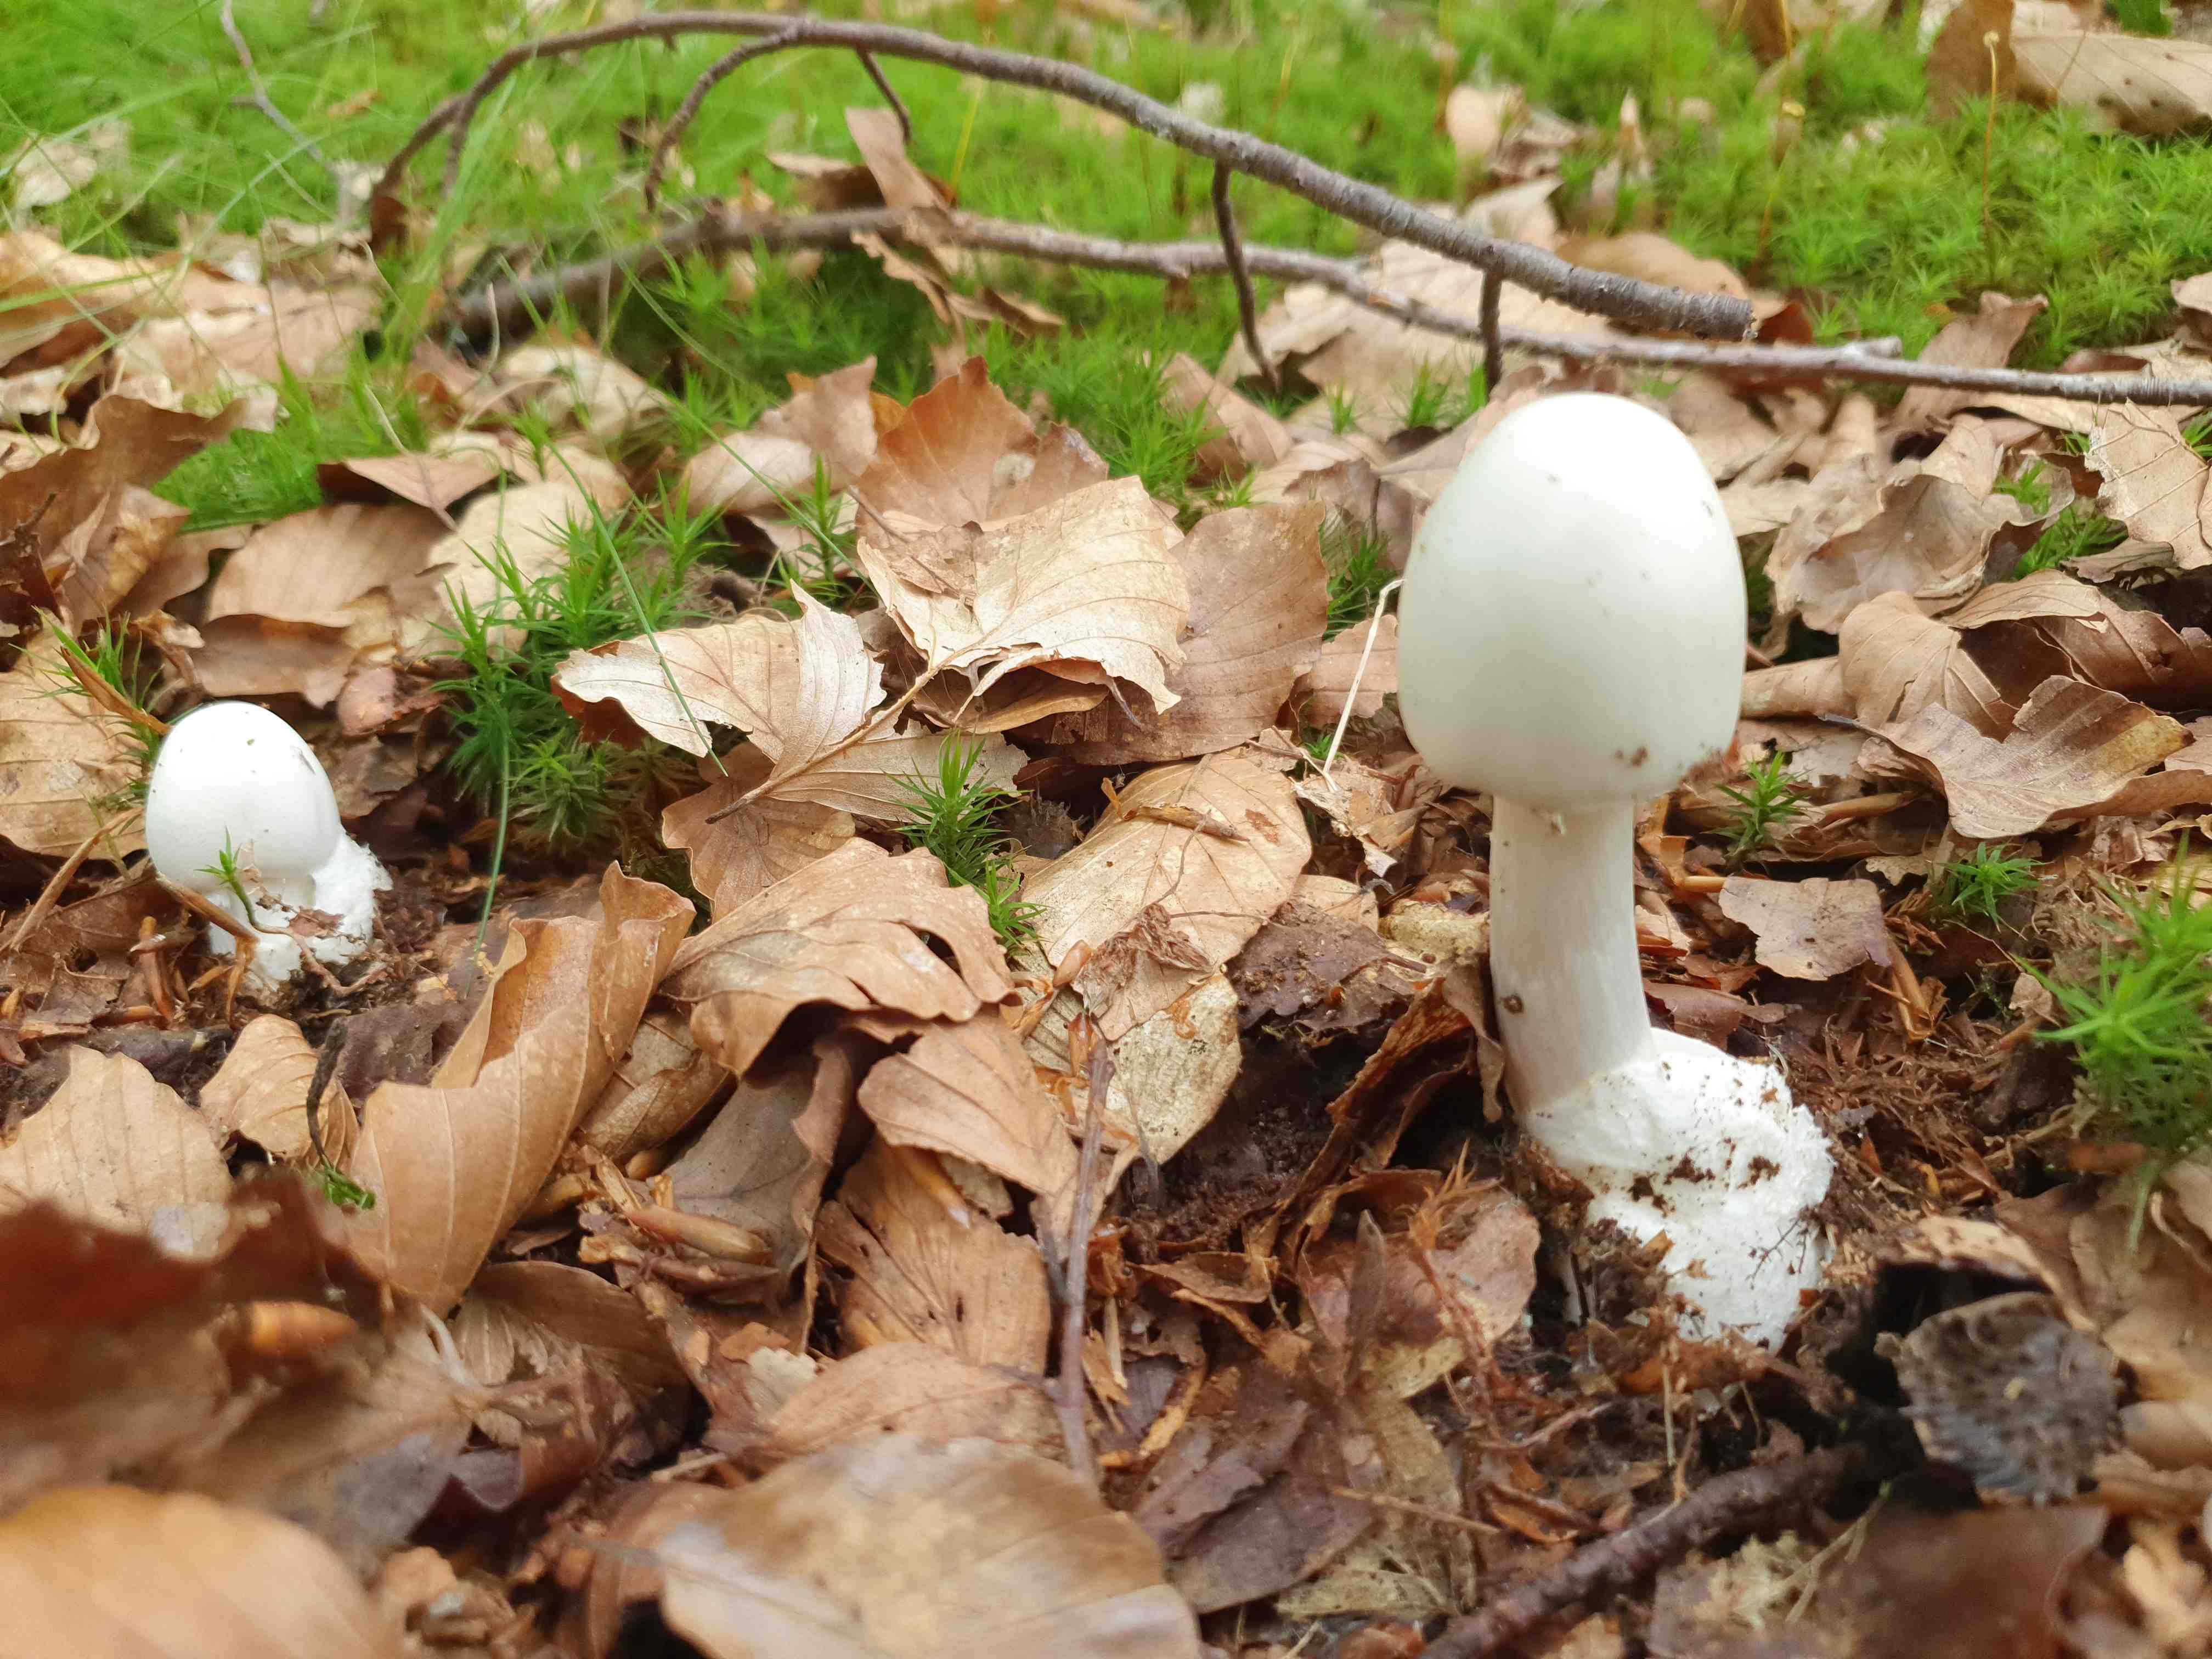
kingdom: Fungi
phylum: Basidiomycota
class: Agaricomycetes
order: Agaricales
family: Amanitaceae
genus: Amanita
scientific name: Amanita virosa
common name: snehvid fluesvamp
